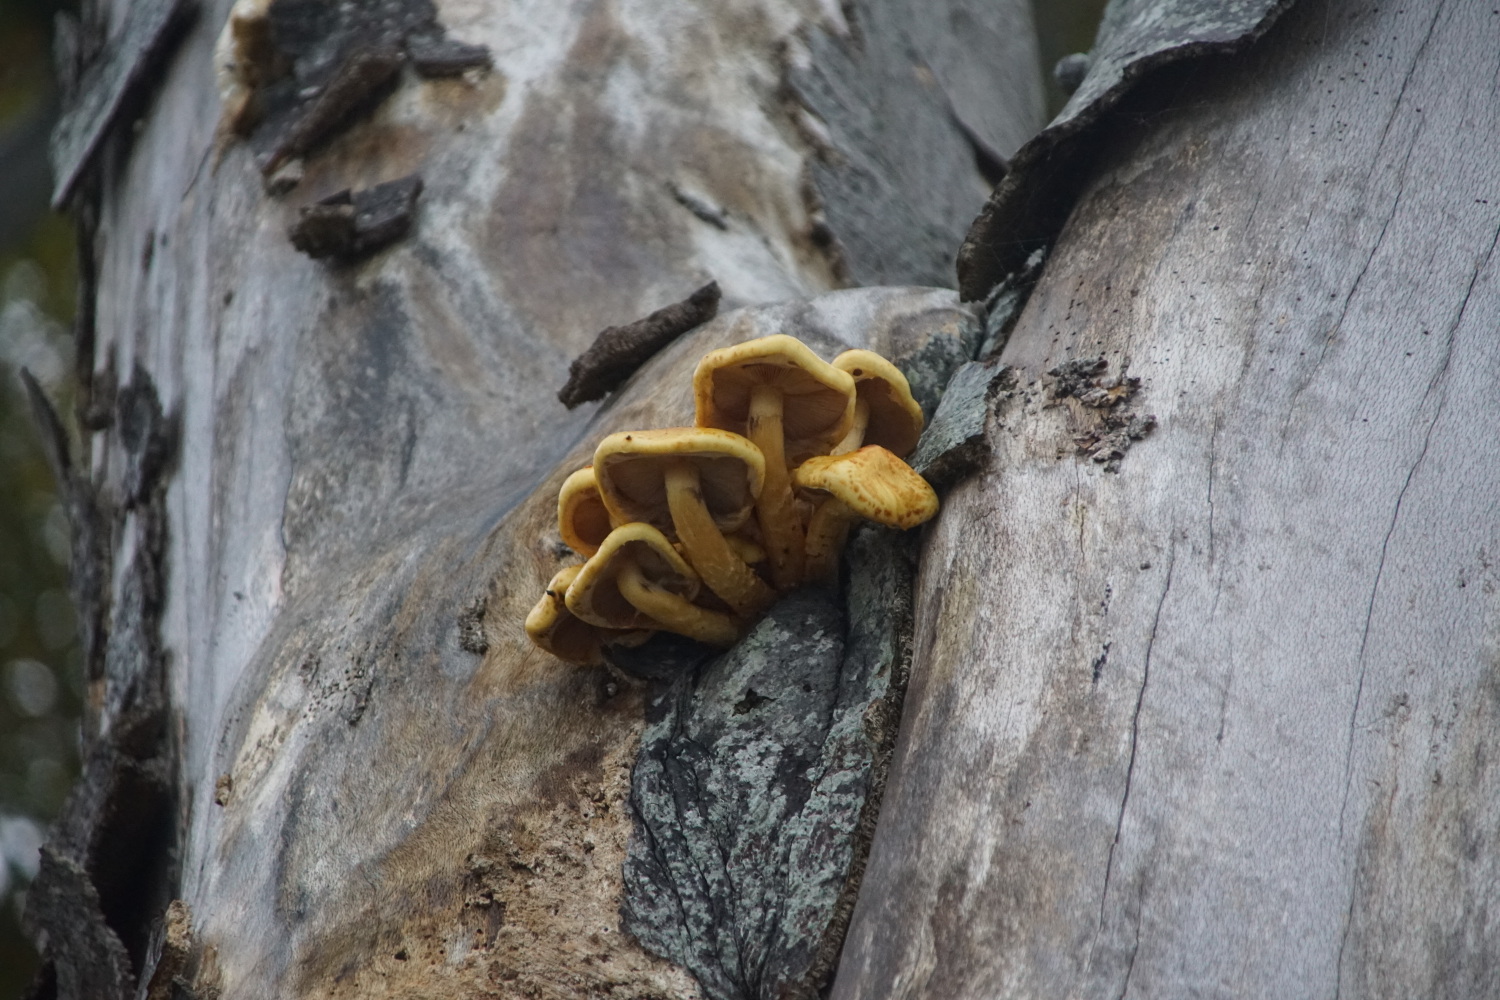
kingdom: Fungi
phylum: Basidiomycota
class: Agaricomycetes
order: Agaricales
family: Strophariaceae
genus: Pholiota
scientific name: Pholiota adiposa
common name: højtsiddende skælhat
